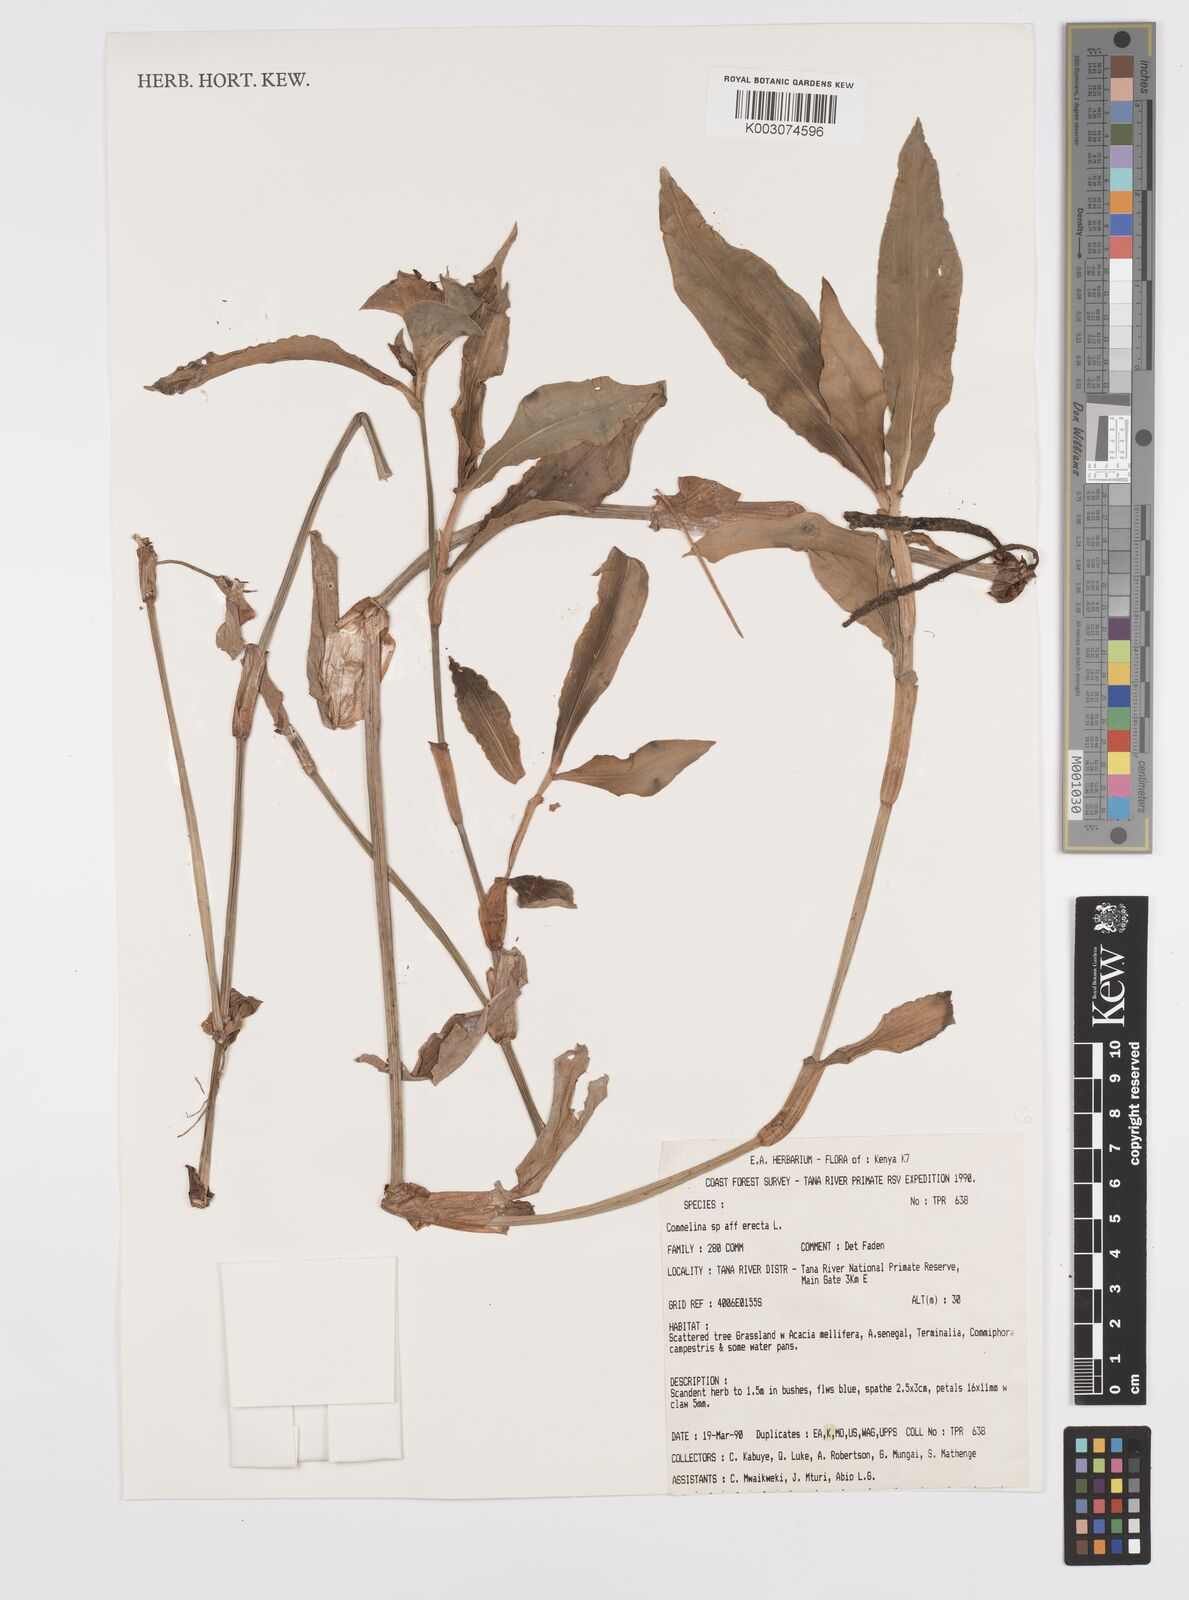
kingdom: Plantae
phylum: Tracheophyta
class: Liliopsida
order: Commelinales
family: Commelinaceae
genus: Commelina
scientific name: Commelina erecta
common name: Blousel blommetjie
